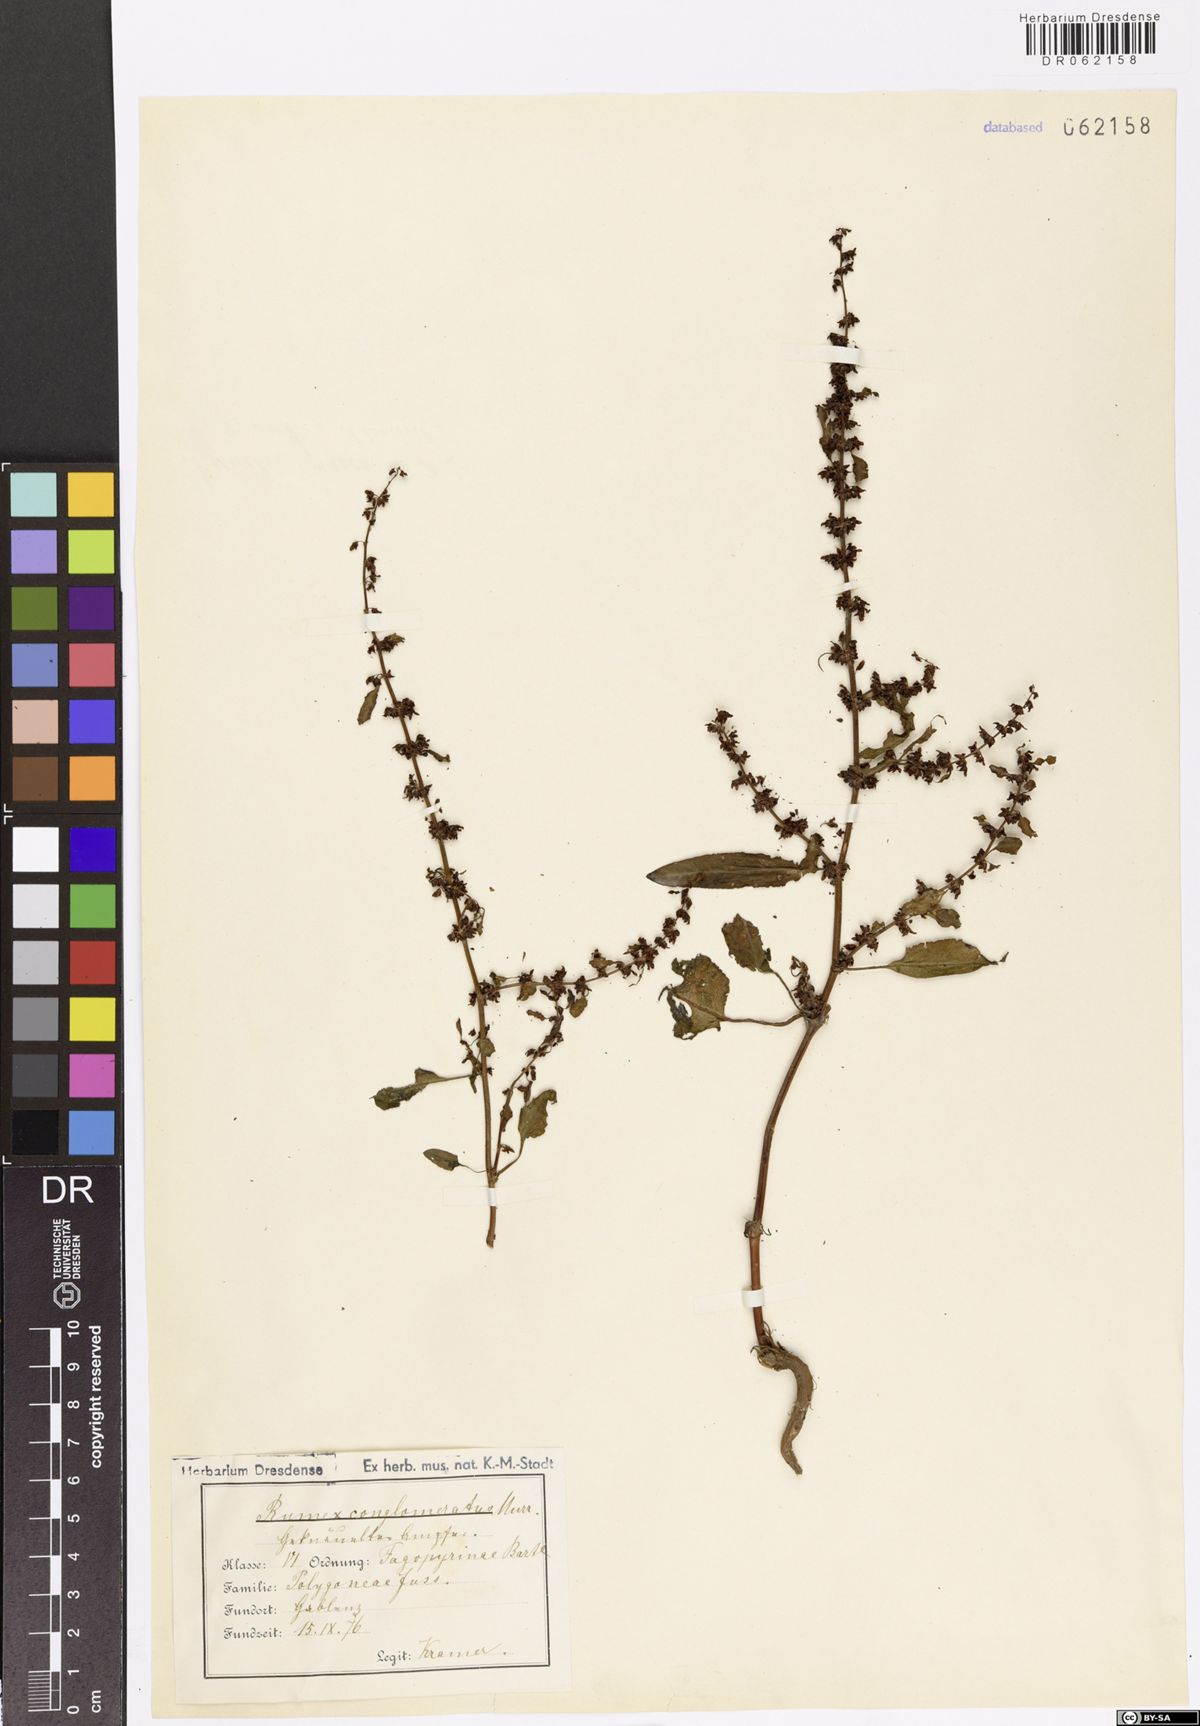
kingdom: Plantae
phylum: Tracheophyta
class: Magnoliopsida
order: Caryophyllales
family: Polygonaceae
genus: Rumex
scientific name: Rumex conglomeratus
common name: Clustered dock
